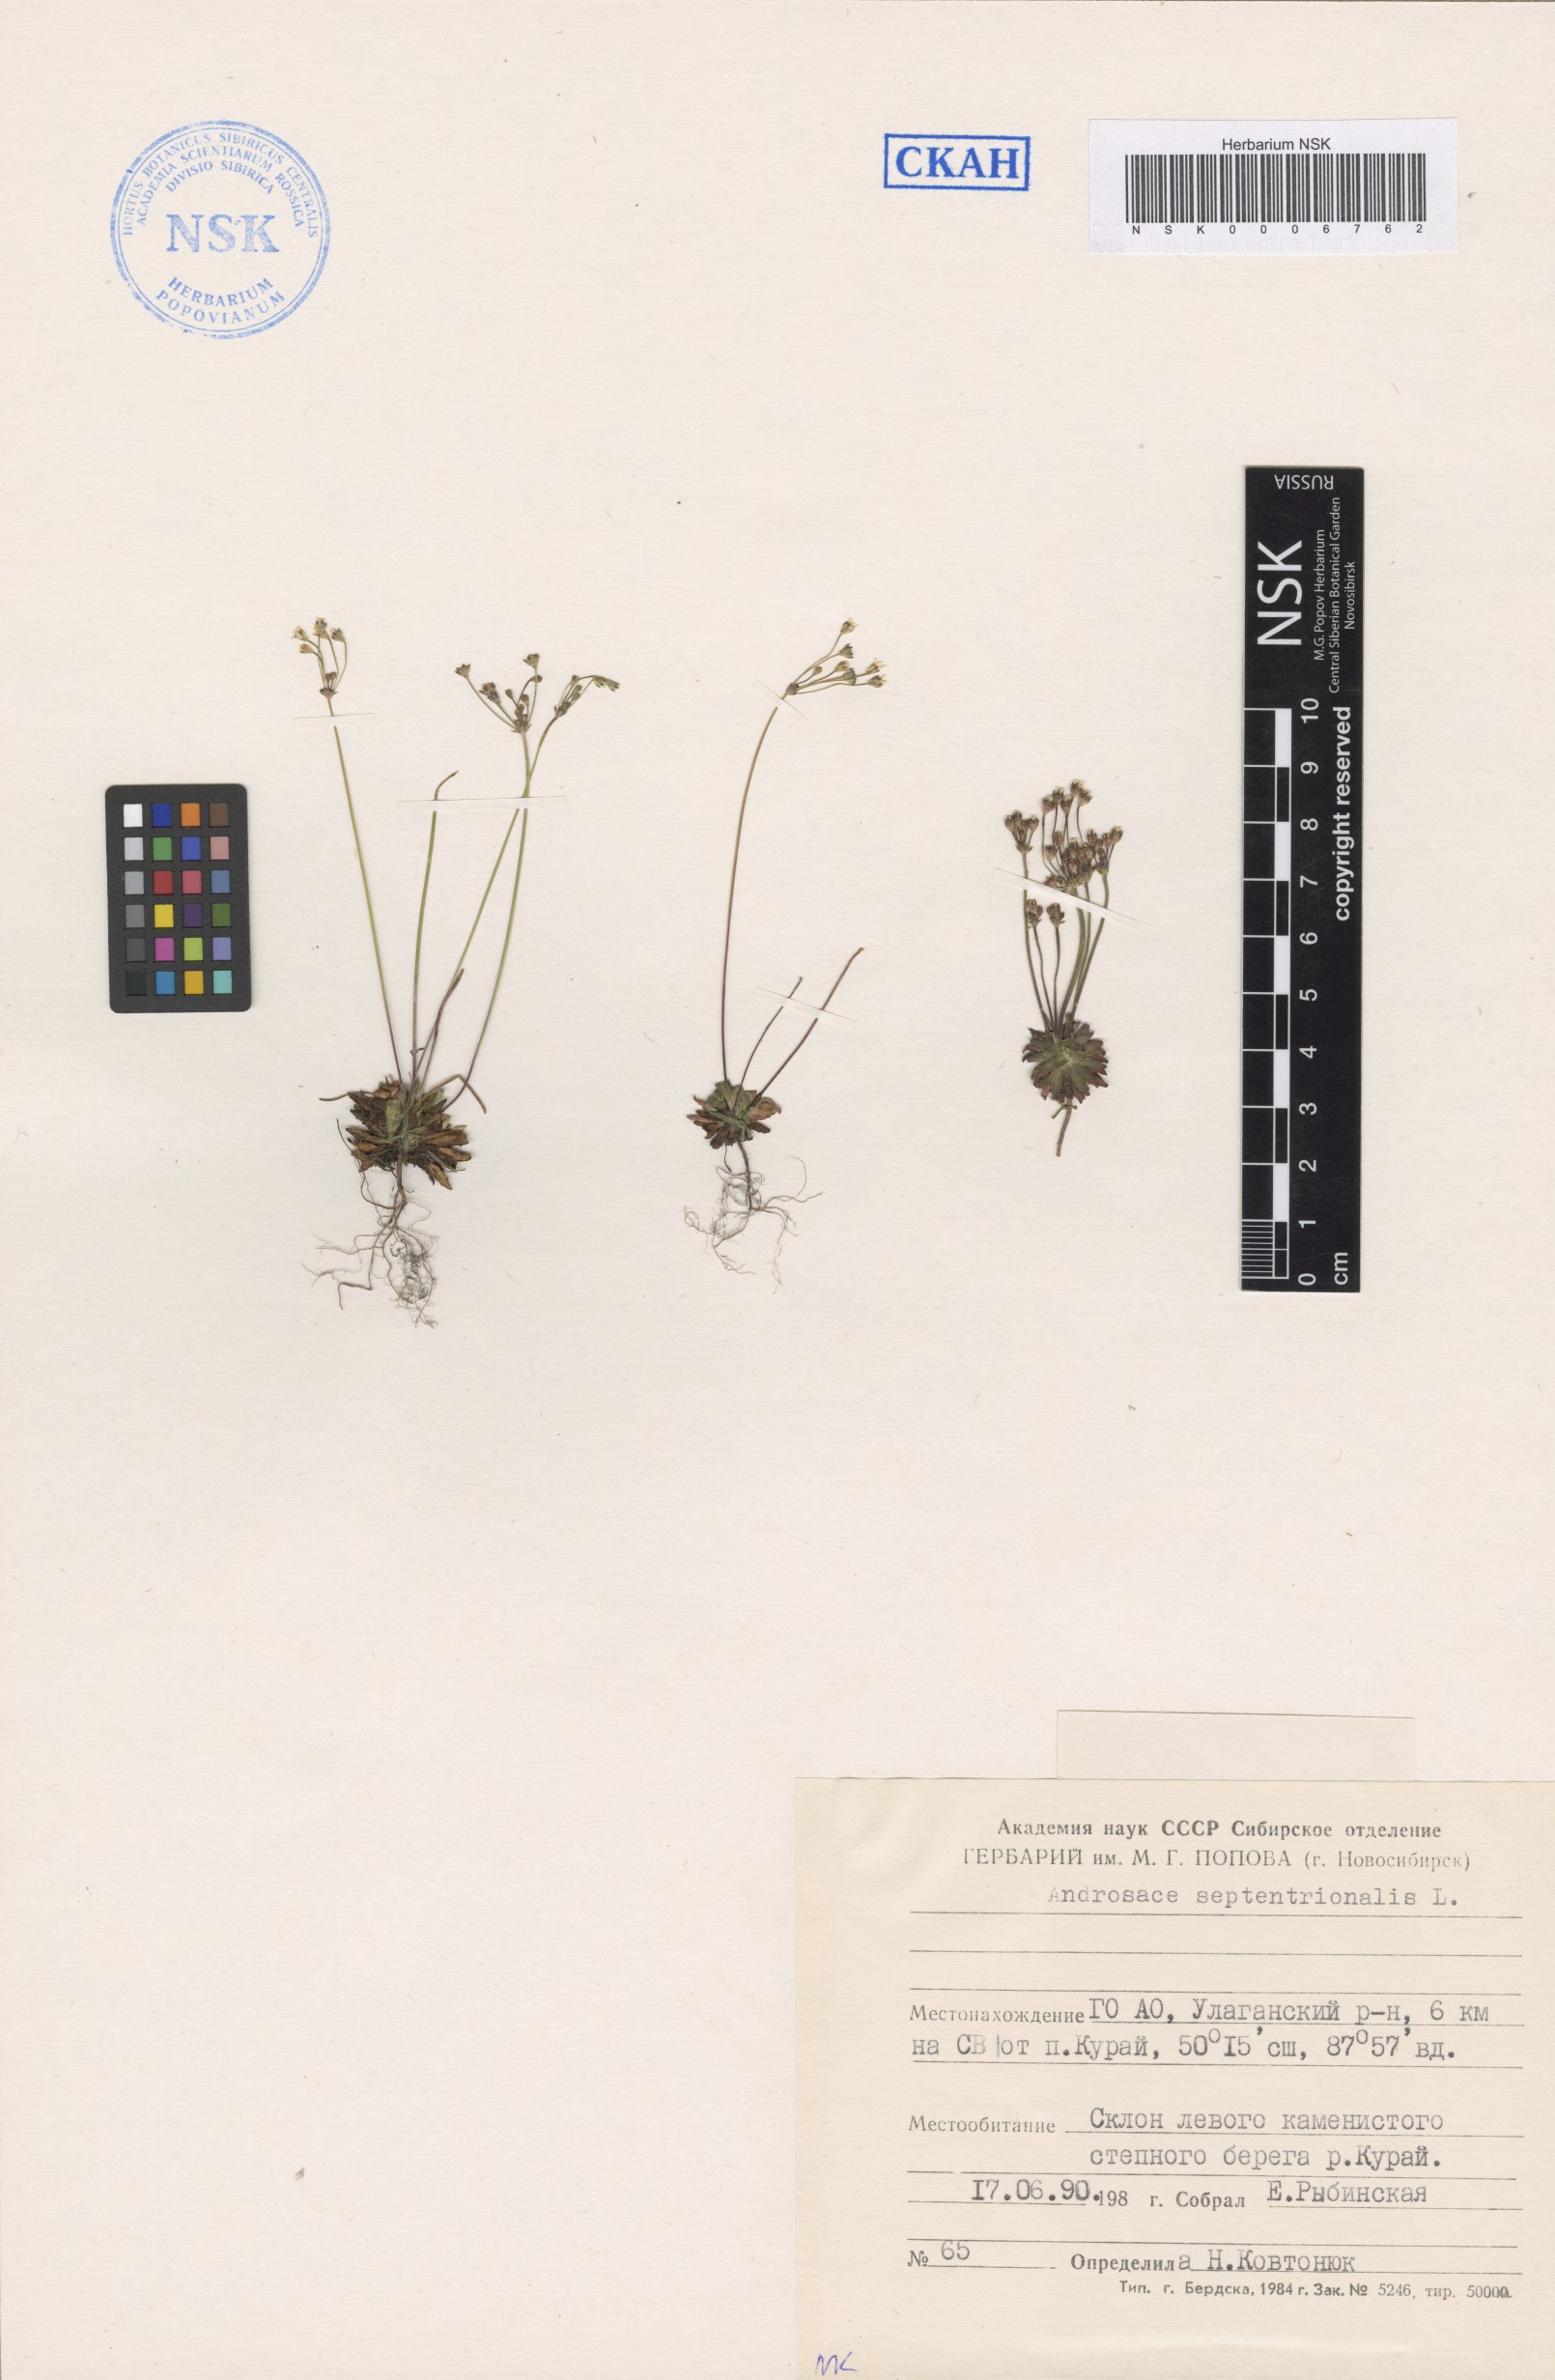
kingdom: Plantae
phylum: Tracheophyta
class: Magnoliopsida
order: Ericales
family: Primulaceae
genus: Androsace
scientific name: Androsace septentrionalis
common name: Hairy northern fairy-candelabra
